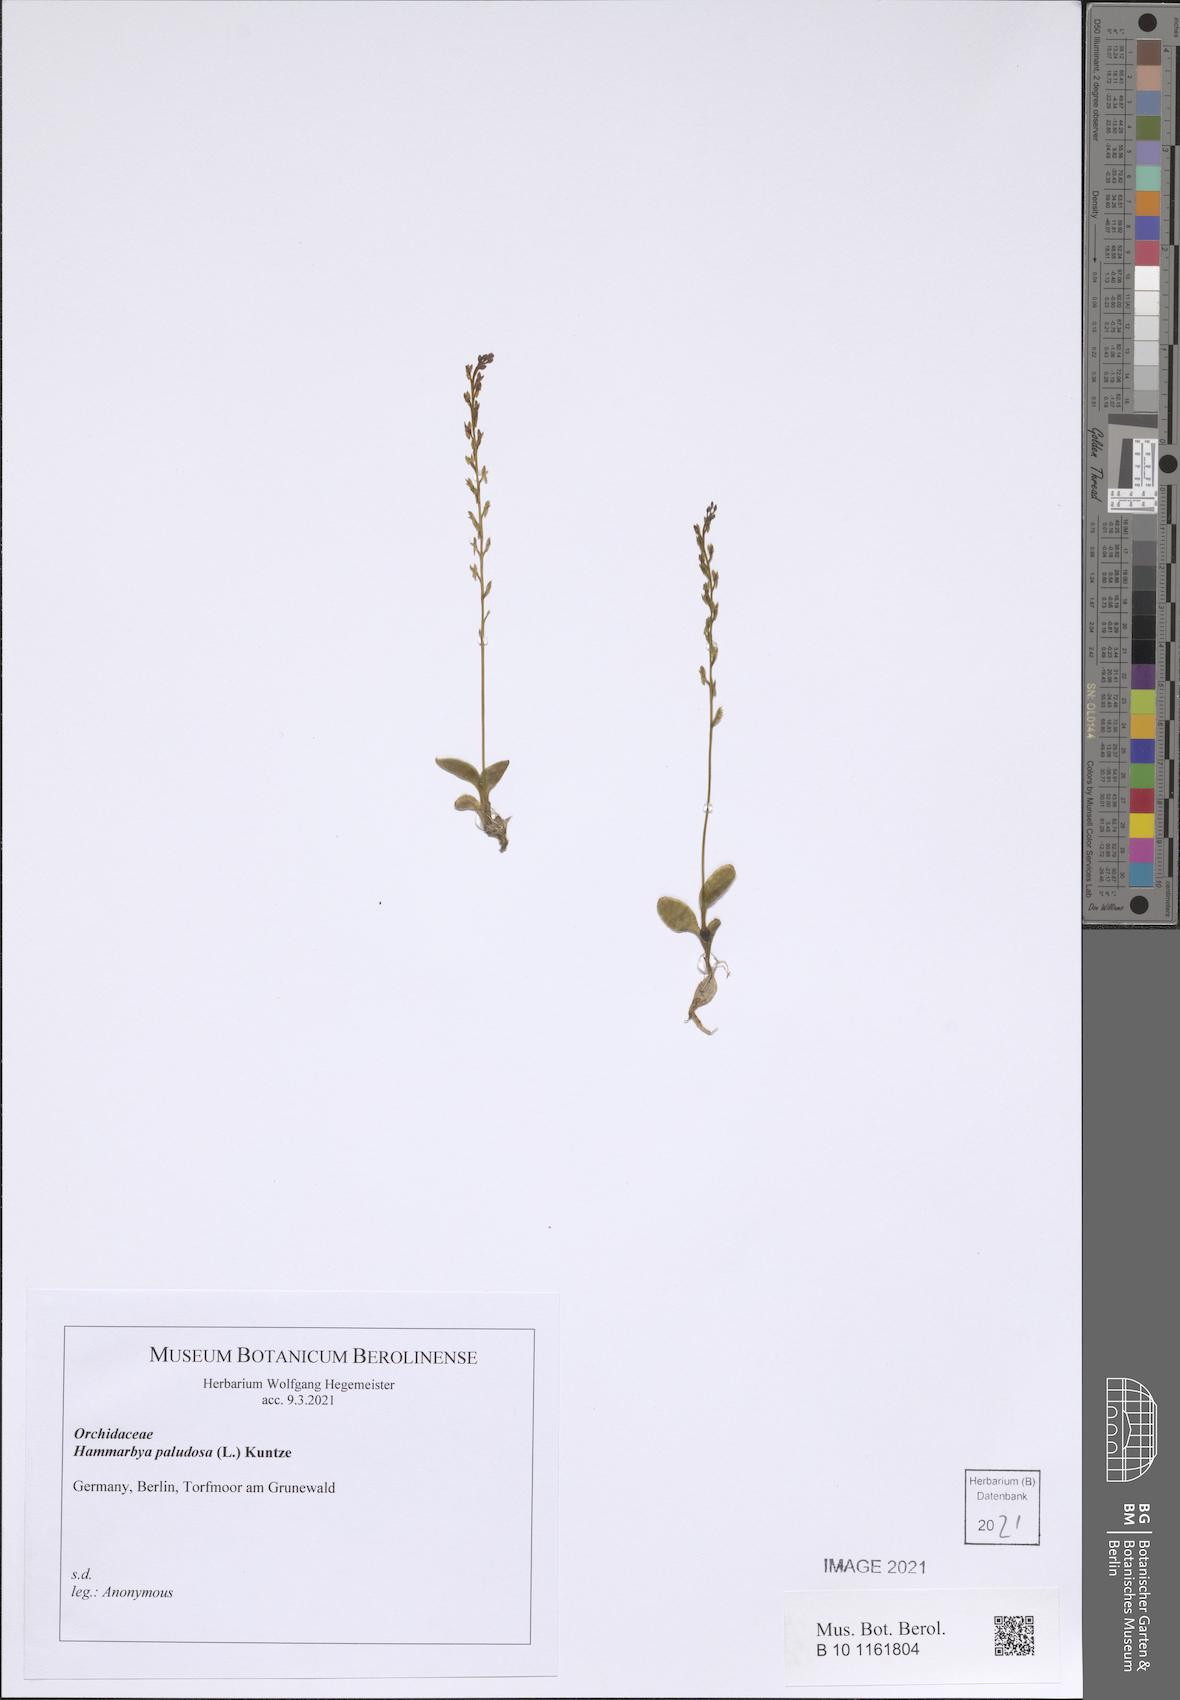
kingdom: Plantae
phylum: Tracheophyta
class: Liliopsida
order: Asparagales
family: Orchidaceae
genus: Hammarbya
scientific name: Hammarbya paludosa
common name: Bog orchid
